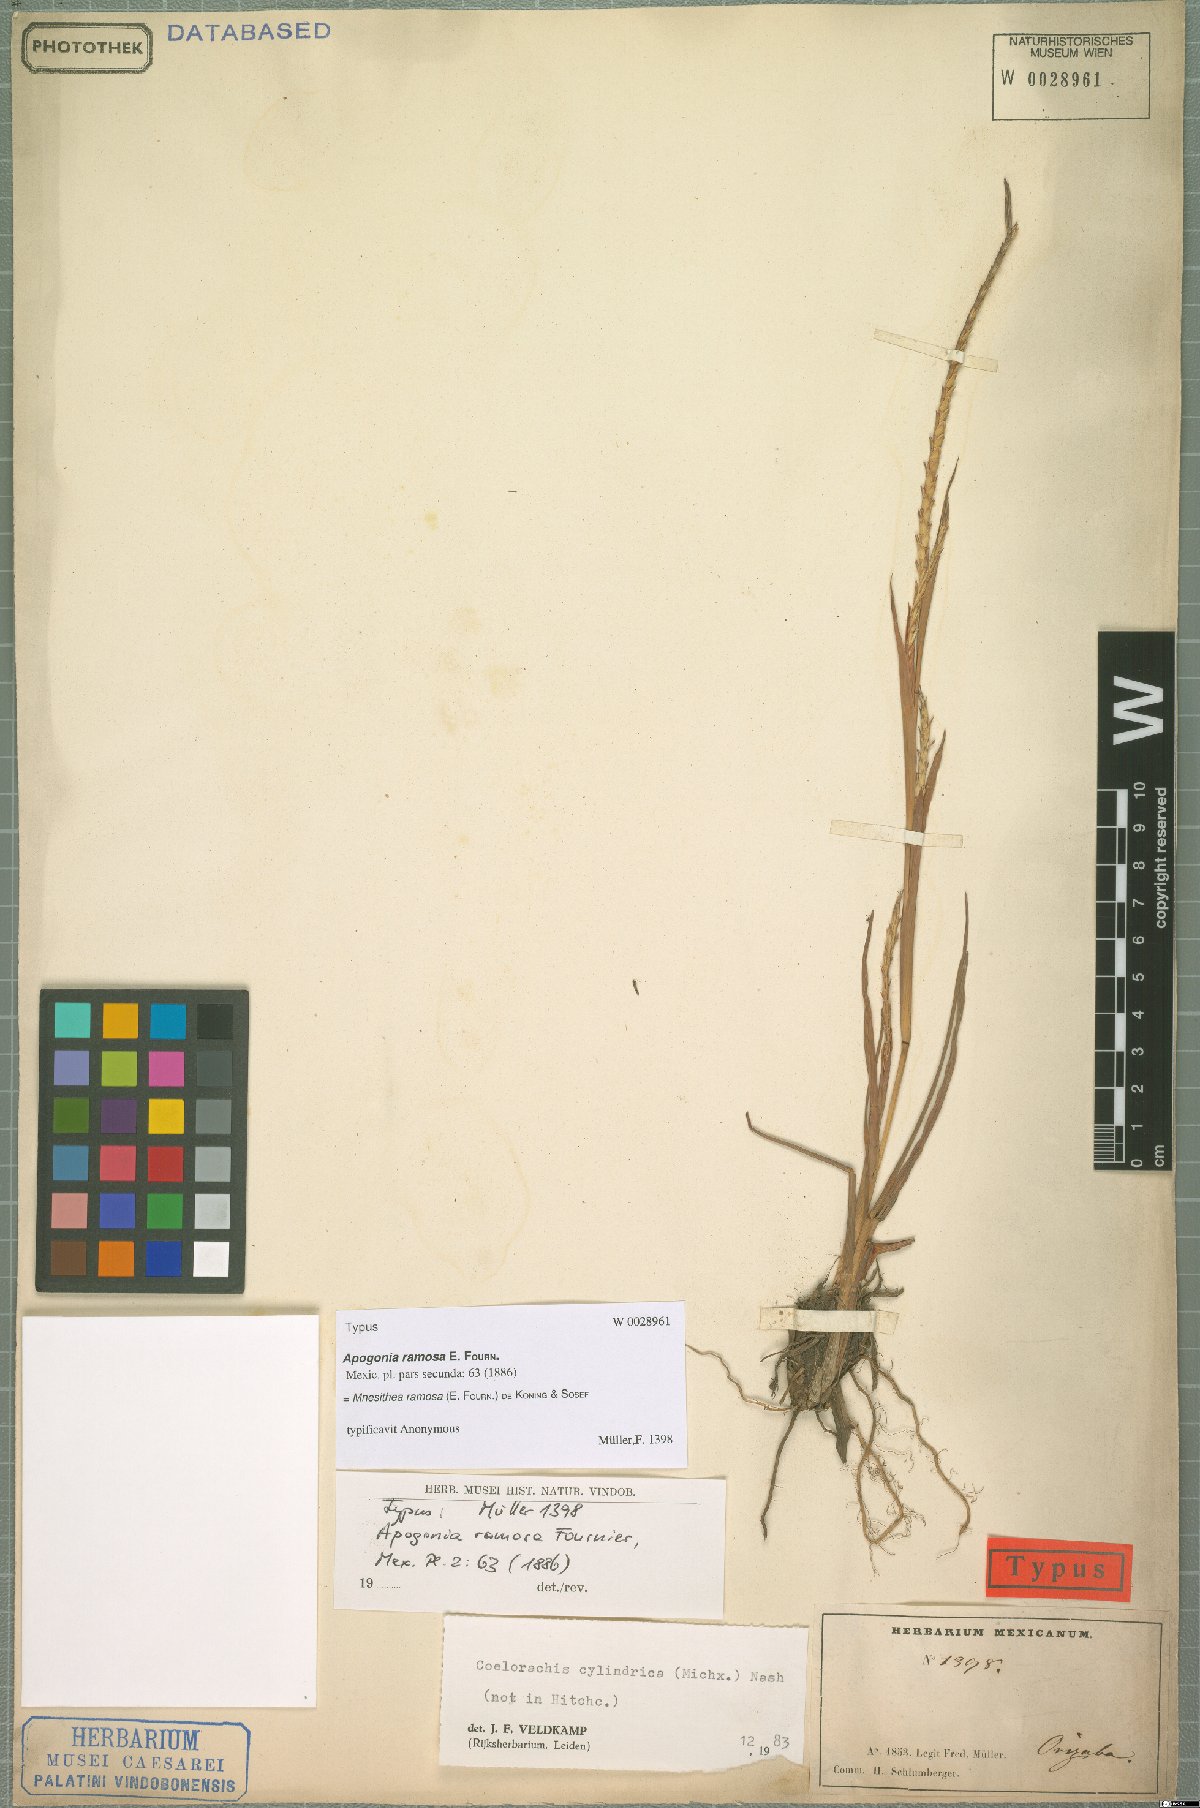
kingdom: Plantae
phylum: Tracheophyta
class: Liliopsida
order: Poales
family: Poaceae
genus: Rottboellia
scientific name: Rottboellia Coelorachis ramosa
